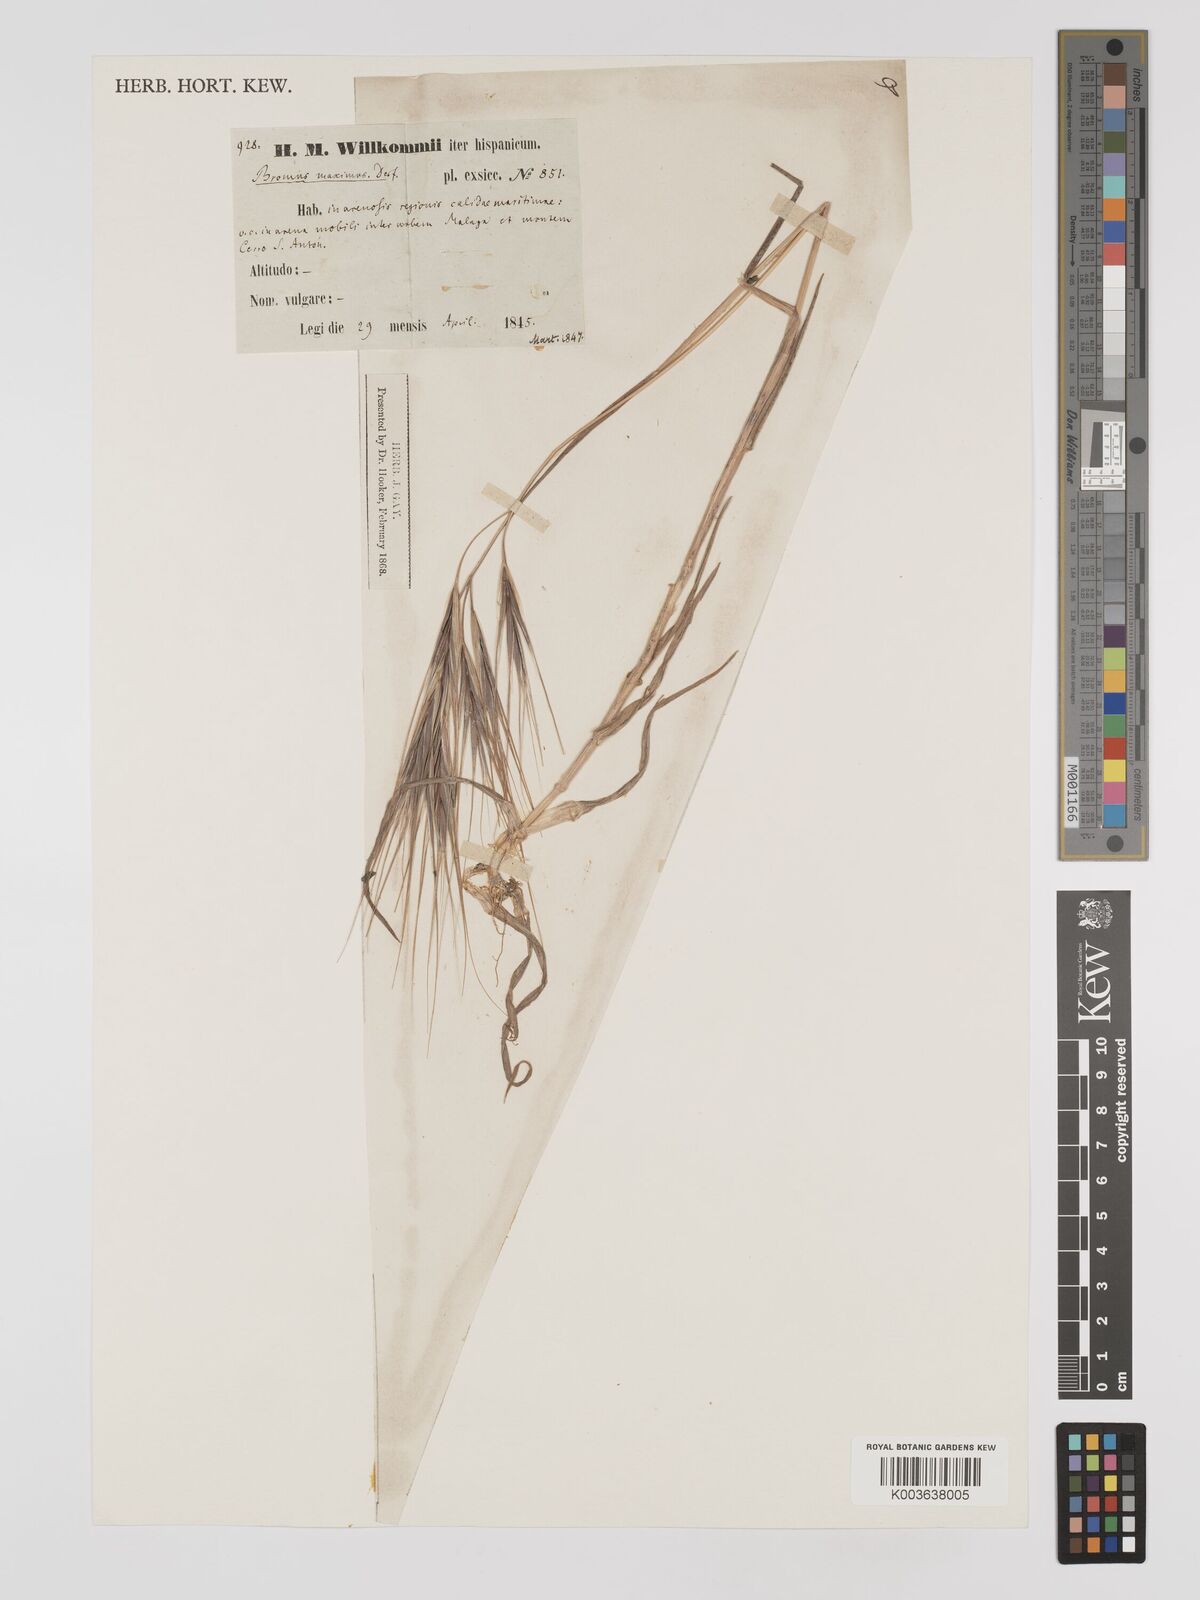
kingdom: Plantae
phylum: Tracheophyta
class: Liliopsida
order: Poales
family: Poaceae
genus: Bromus
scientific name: Bromus
